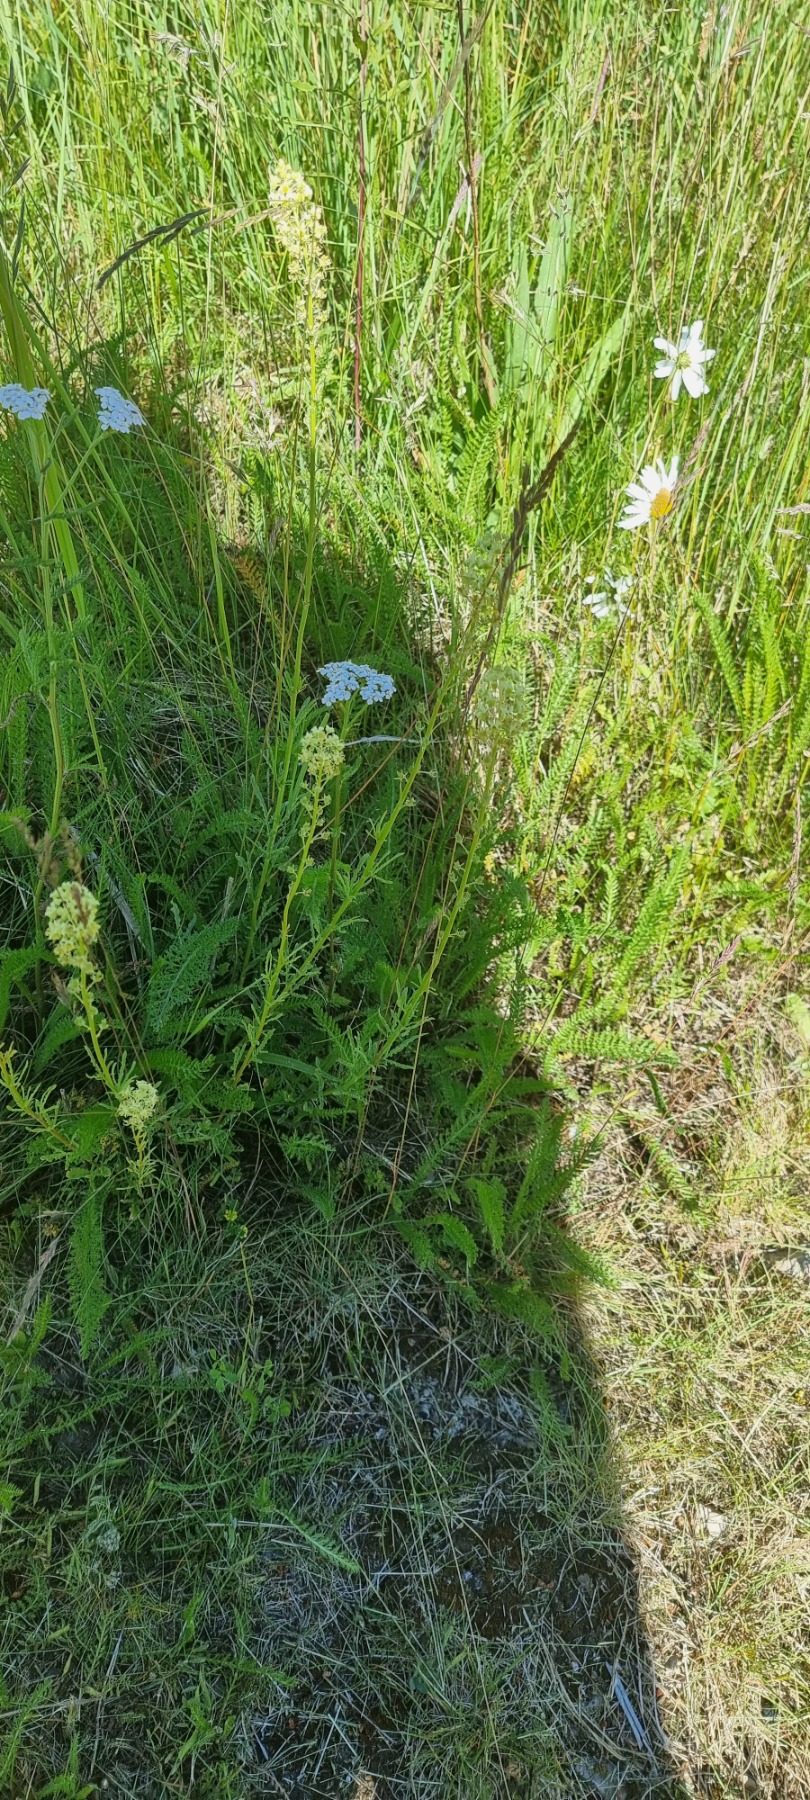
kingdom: Plantae
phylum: Tracheophyta
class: Magnoliopsida
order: Brassicales
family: Resedaceae
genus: Reseda
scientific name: Reseda lutea
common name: Gul reseda
